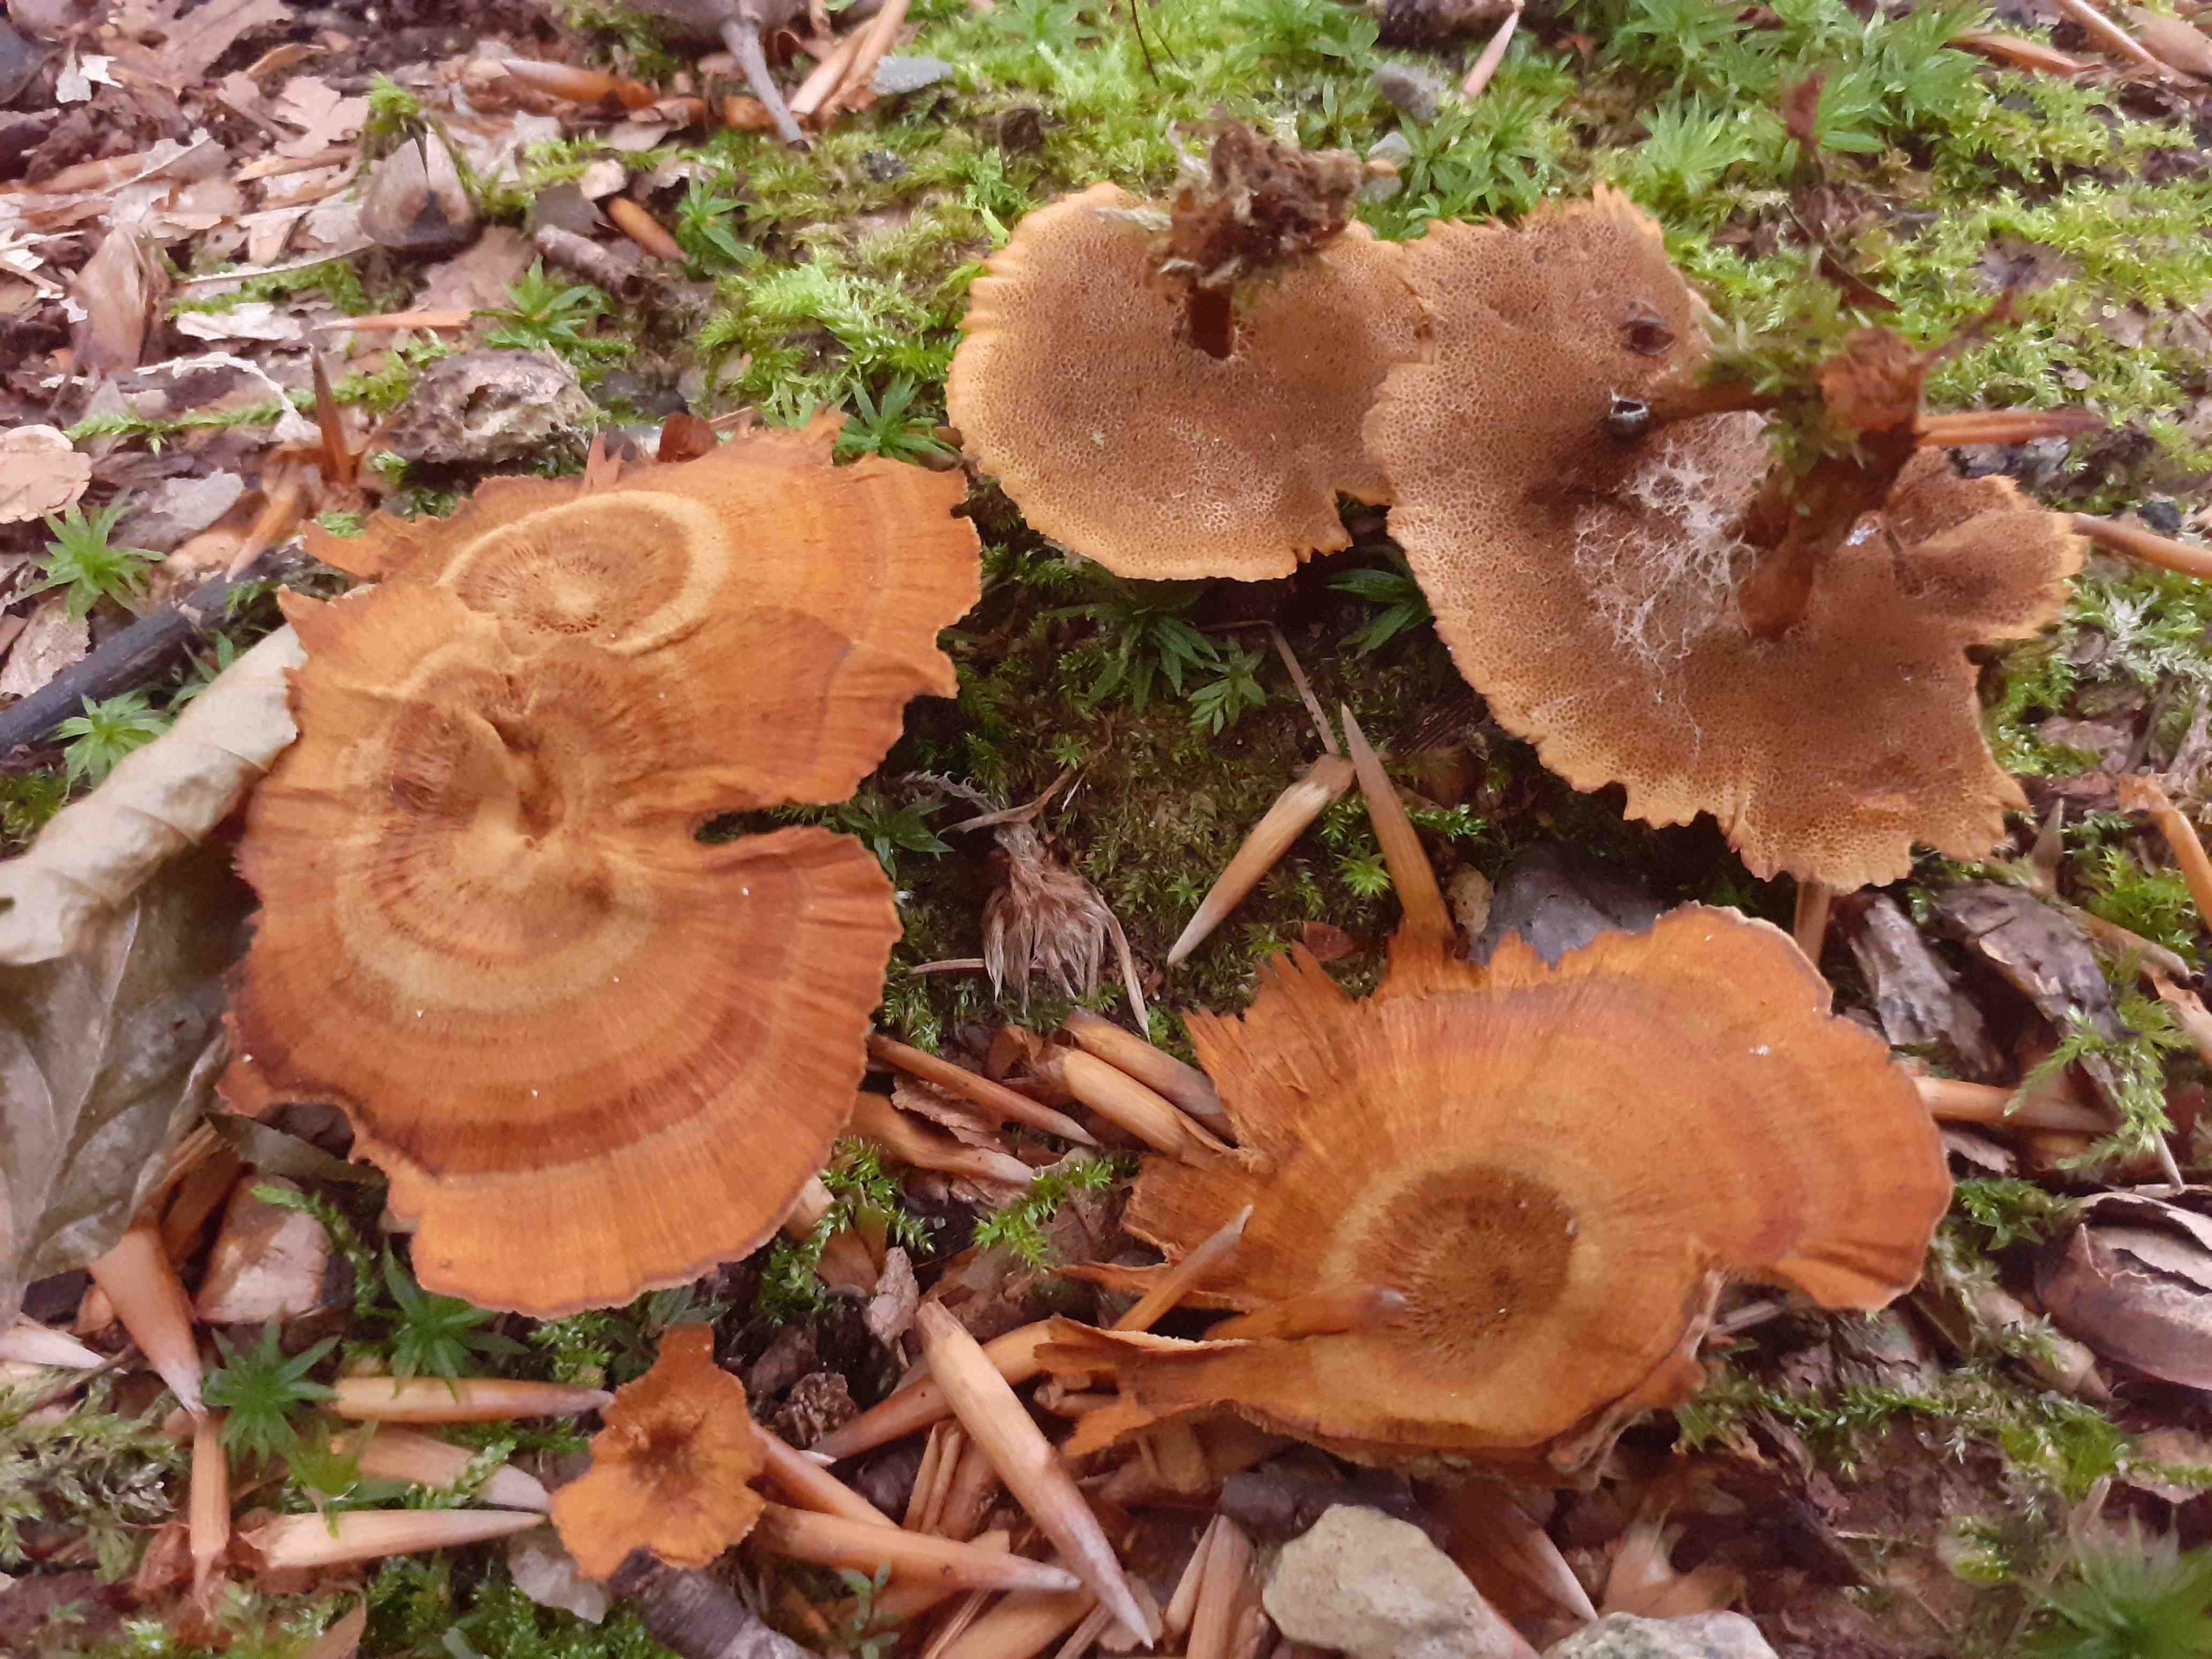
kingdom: Fungi
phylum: Basidiomycota
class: Agaricomycetes
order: Hymenochaetales
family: Hymenochaetaceae
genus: Coltricia
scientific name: Coltricia
